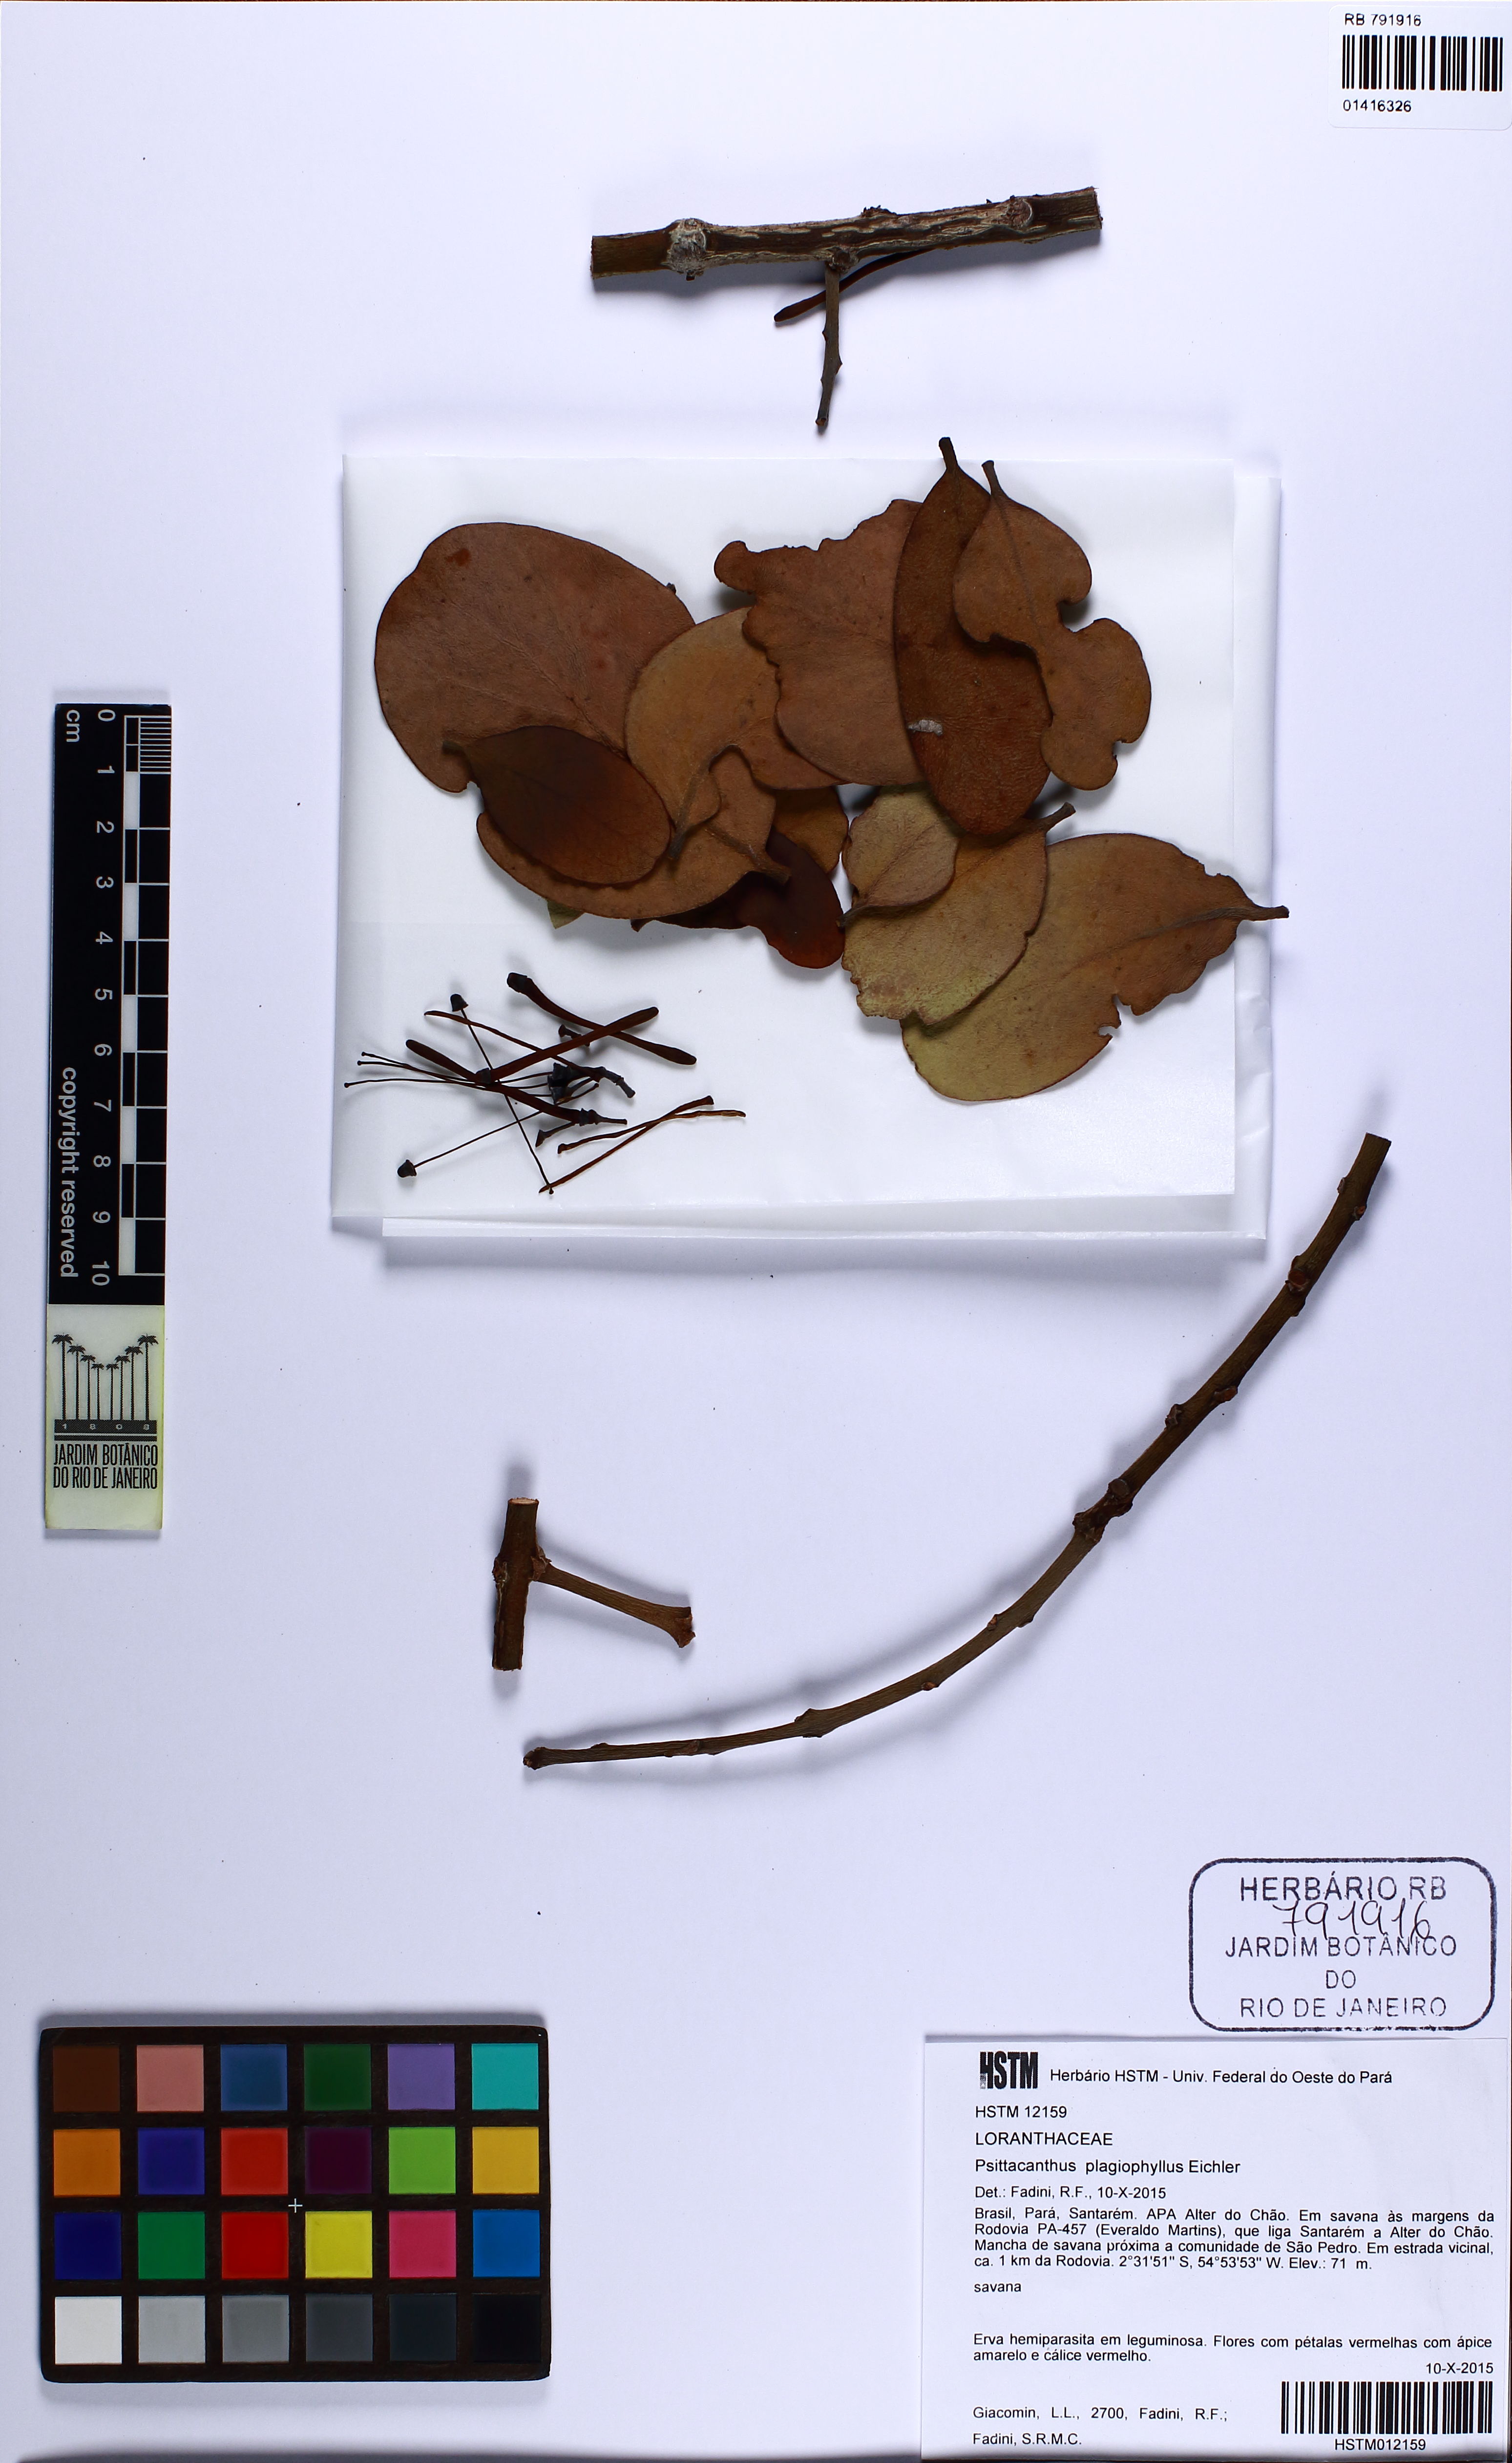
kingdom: Plantae
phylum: Tracheophyta
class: Magnoliopsida
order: Santalales
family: Loranthaceae
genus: Psittacanthus
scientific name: Psittacanthus plagiophyllus
